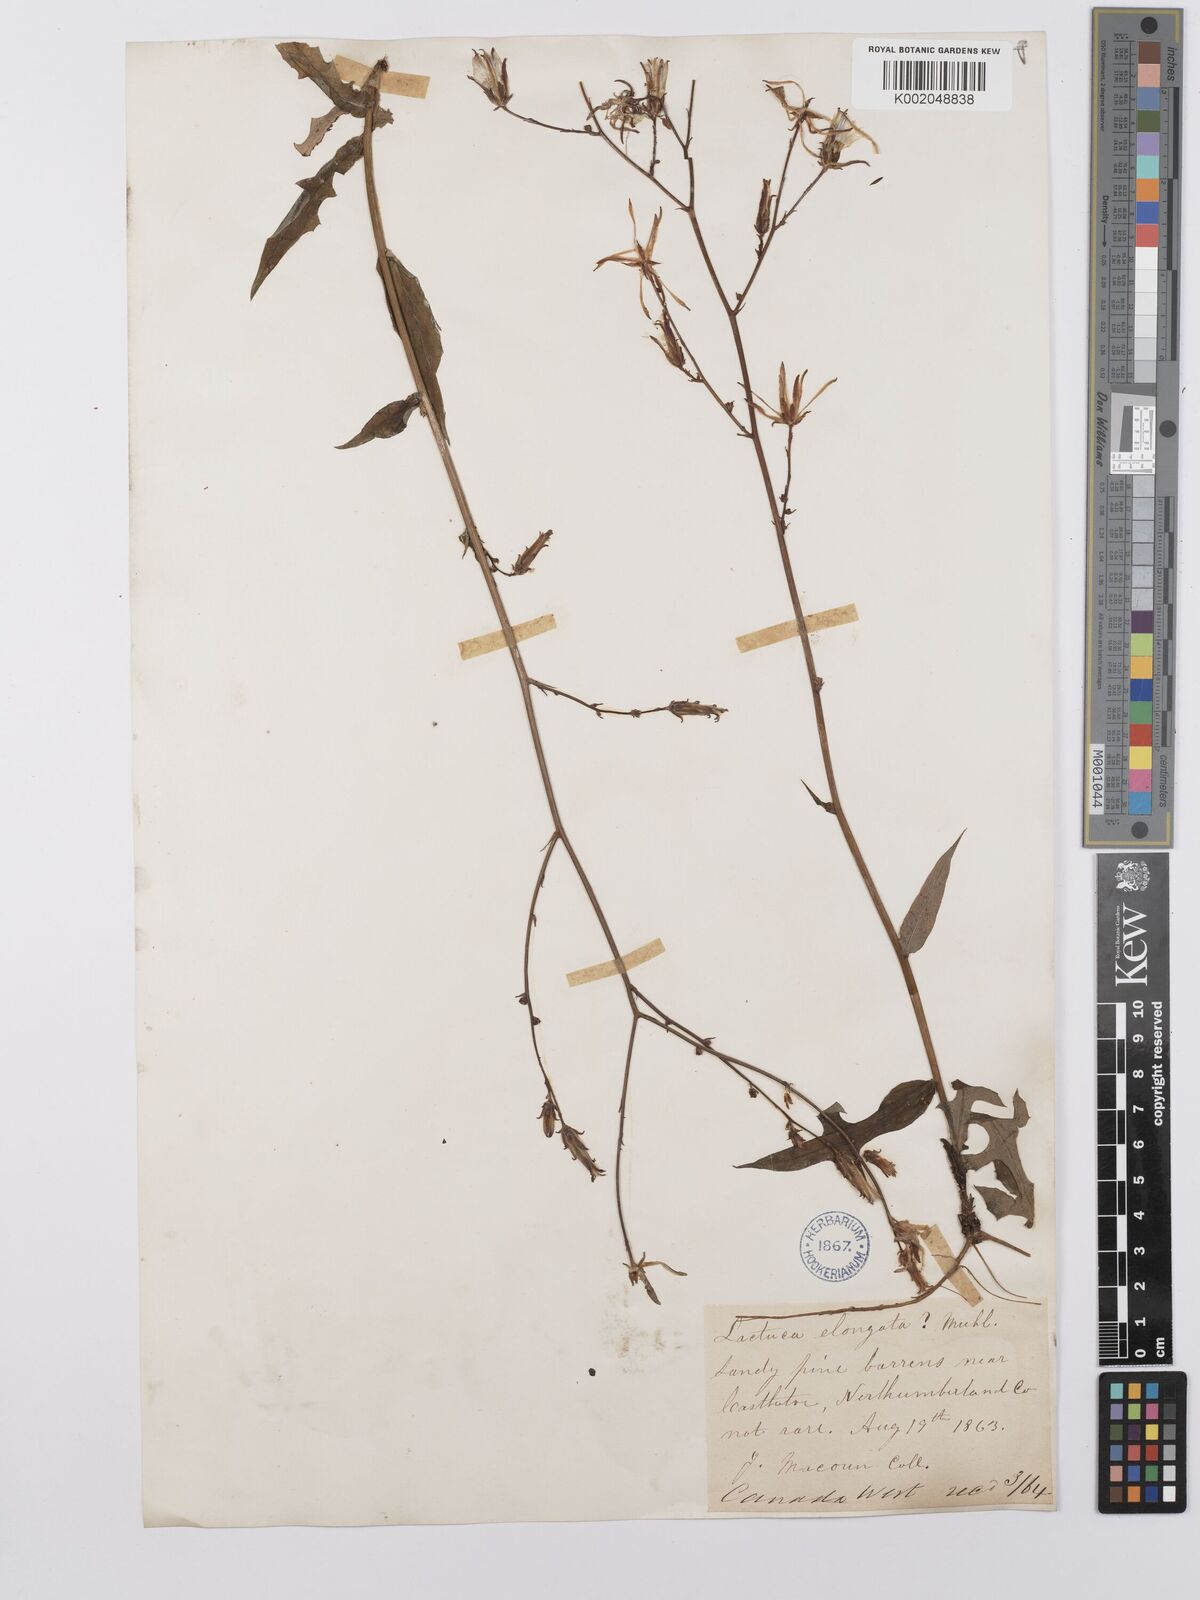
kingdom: Plantae
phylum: Tracheophyta
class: Magnoliopsida
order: Asterales
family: Asteraceae
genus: Lactuca
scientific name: Lactuca canadensis
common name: Canada lettuce
